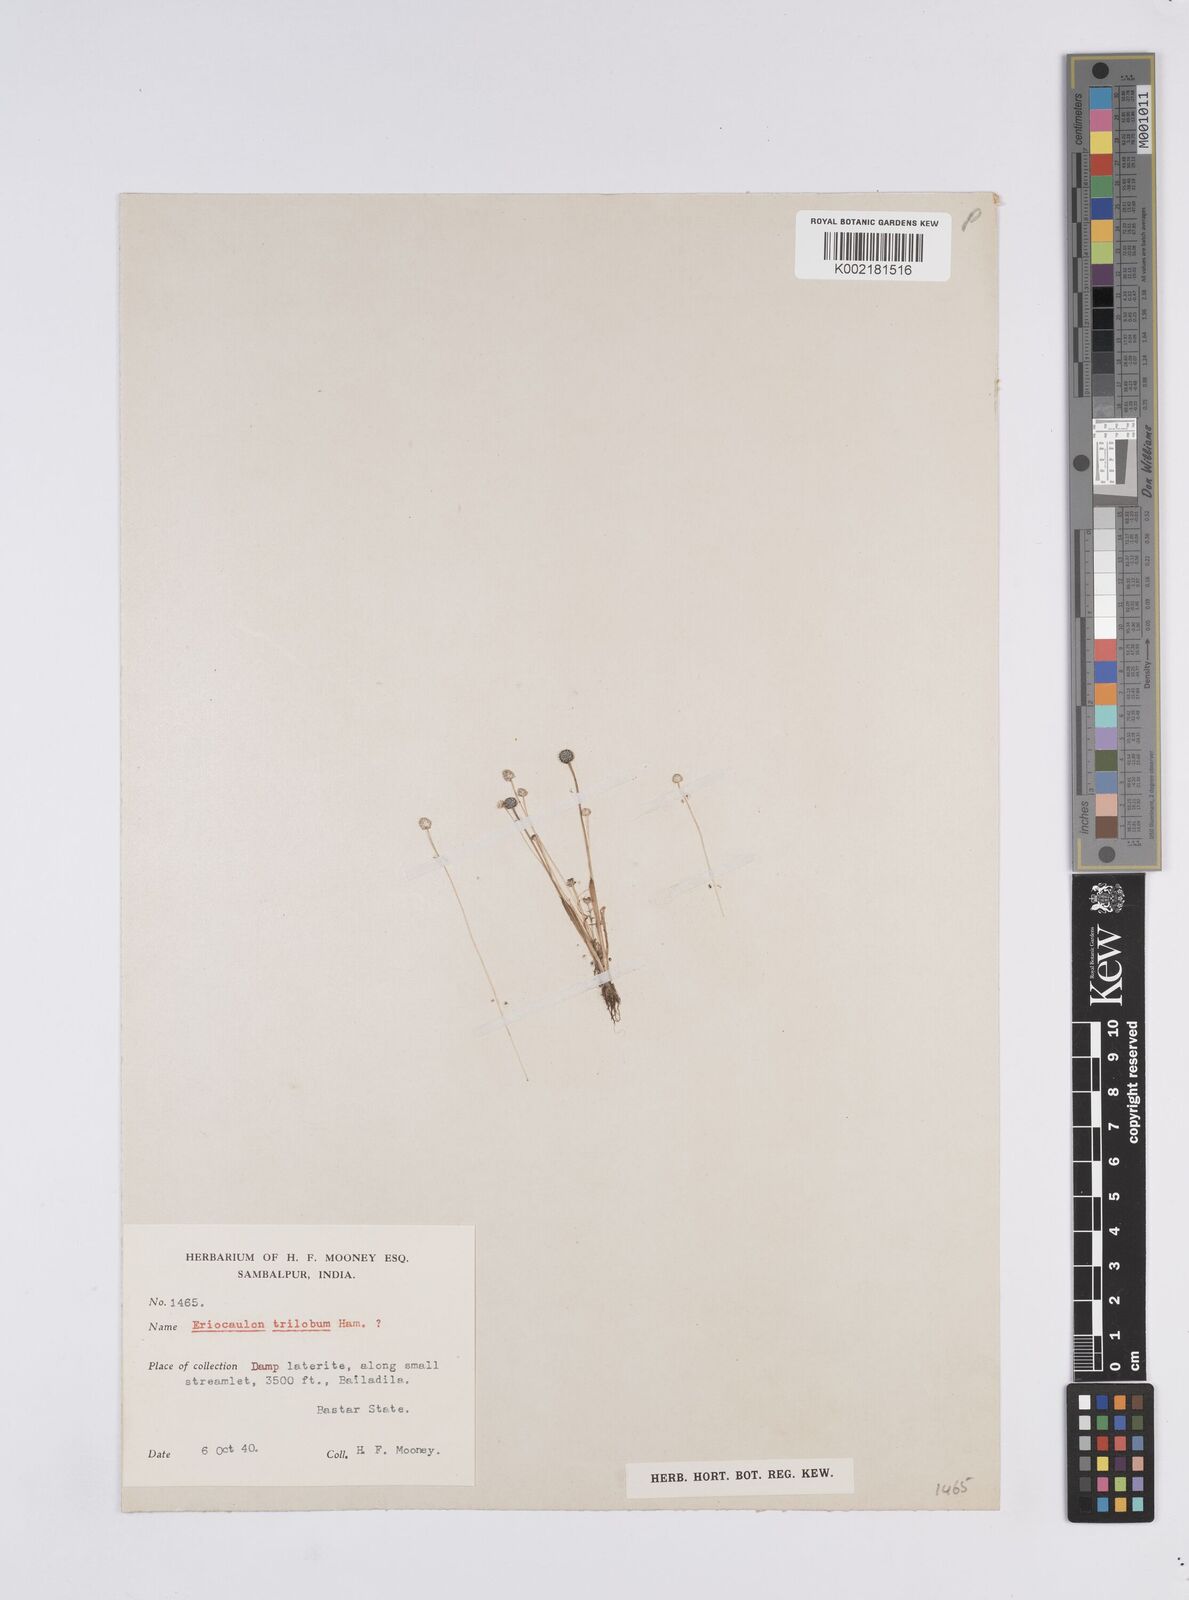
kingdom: Plantae
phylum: Tracheophyta
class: Liliopsida
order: Poales
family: Eriocaulaceae
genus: Eriocaulon
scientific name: Eriocaulon sollyanum
